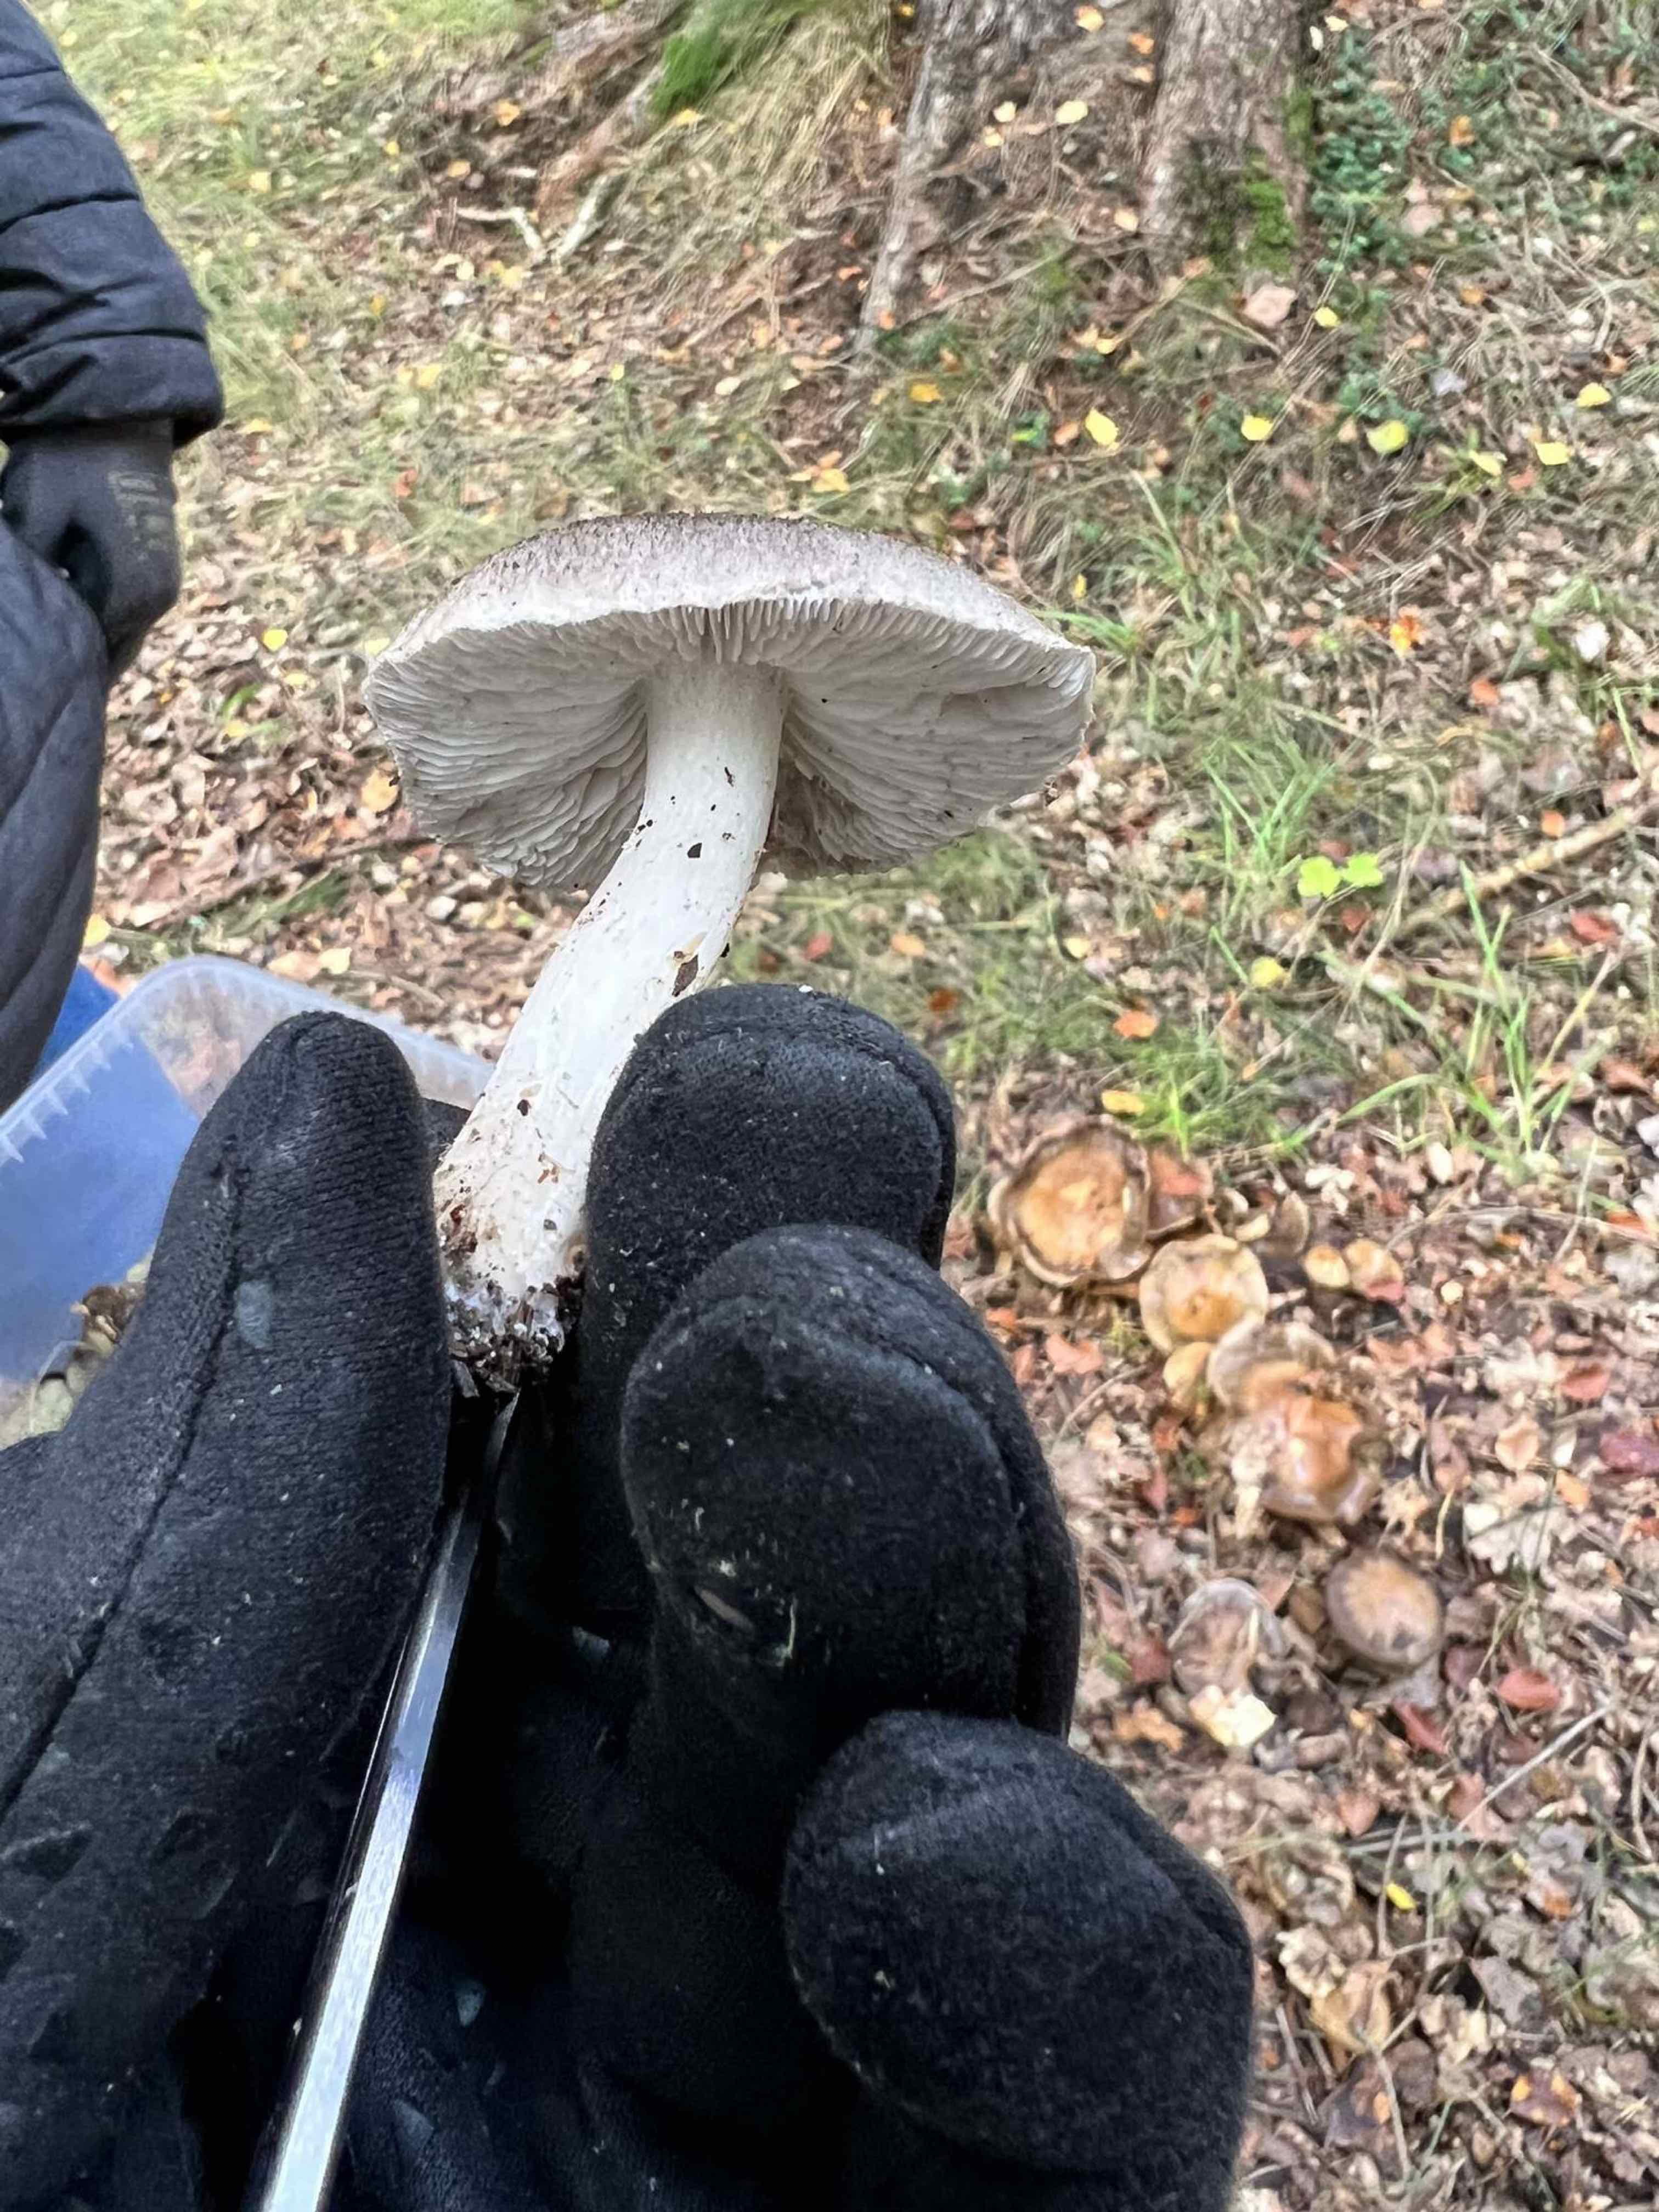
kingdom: Fungi
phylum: Basidiomycota
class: Agaricomycetes
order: Agaricales
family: Tricholomataceae
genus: Tricholoma
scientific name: Tricholoma
